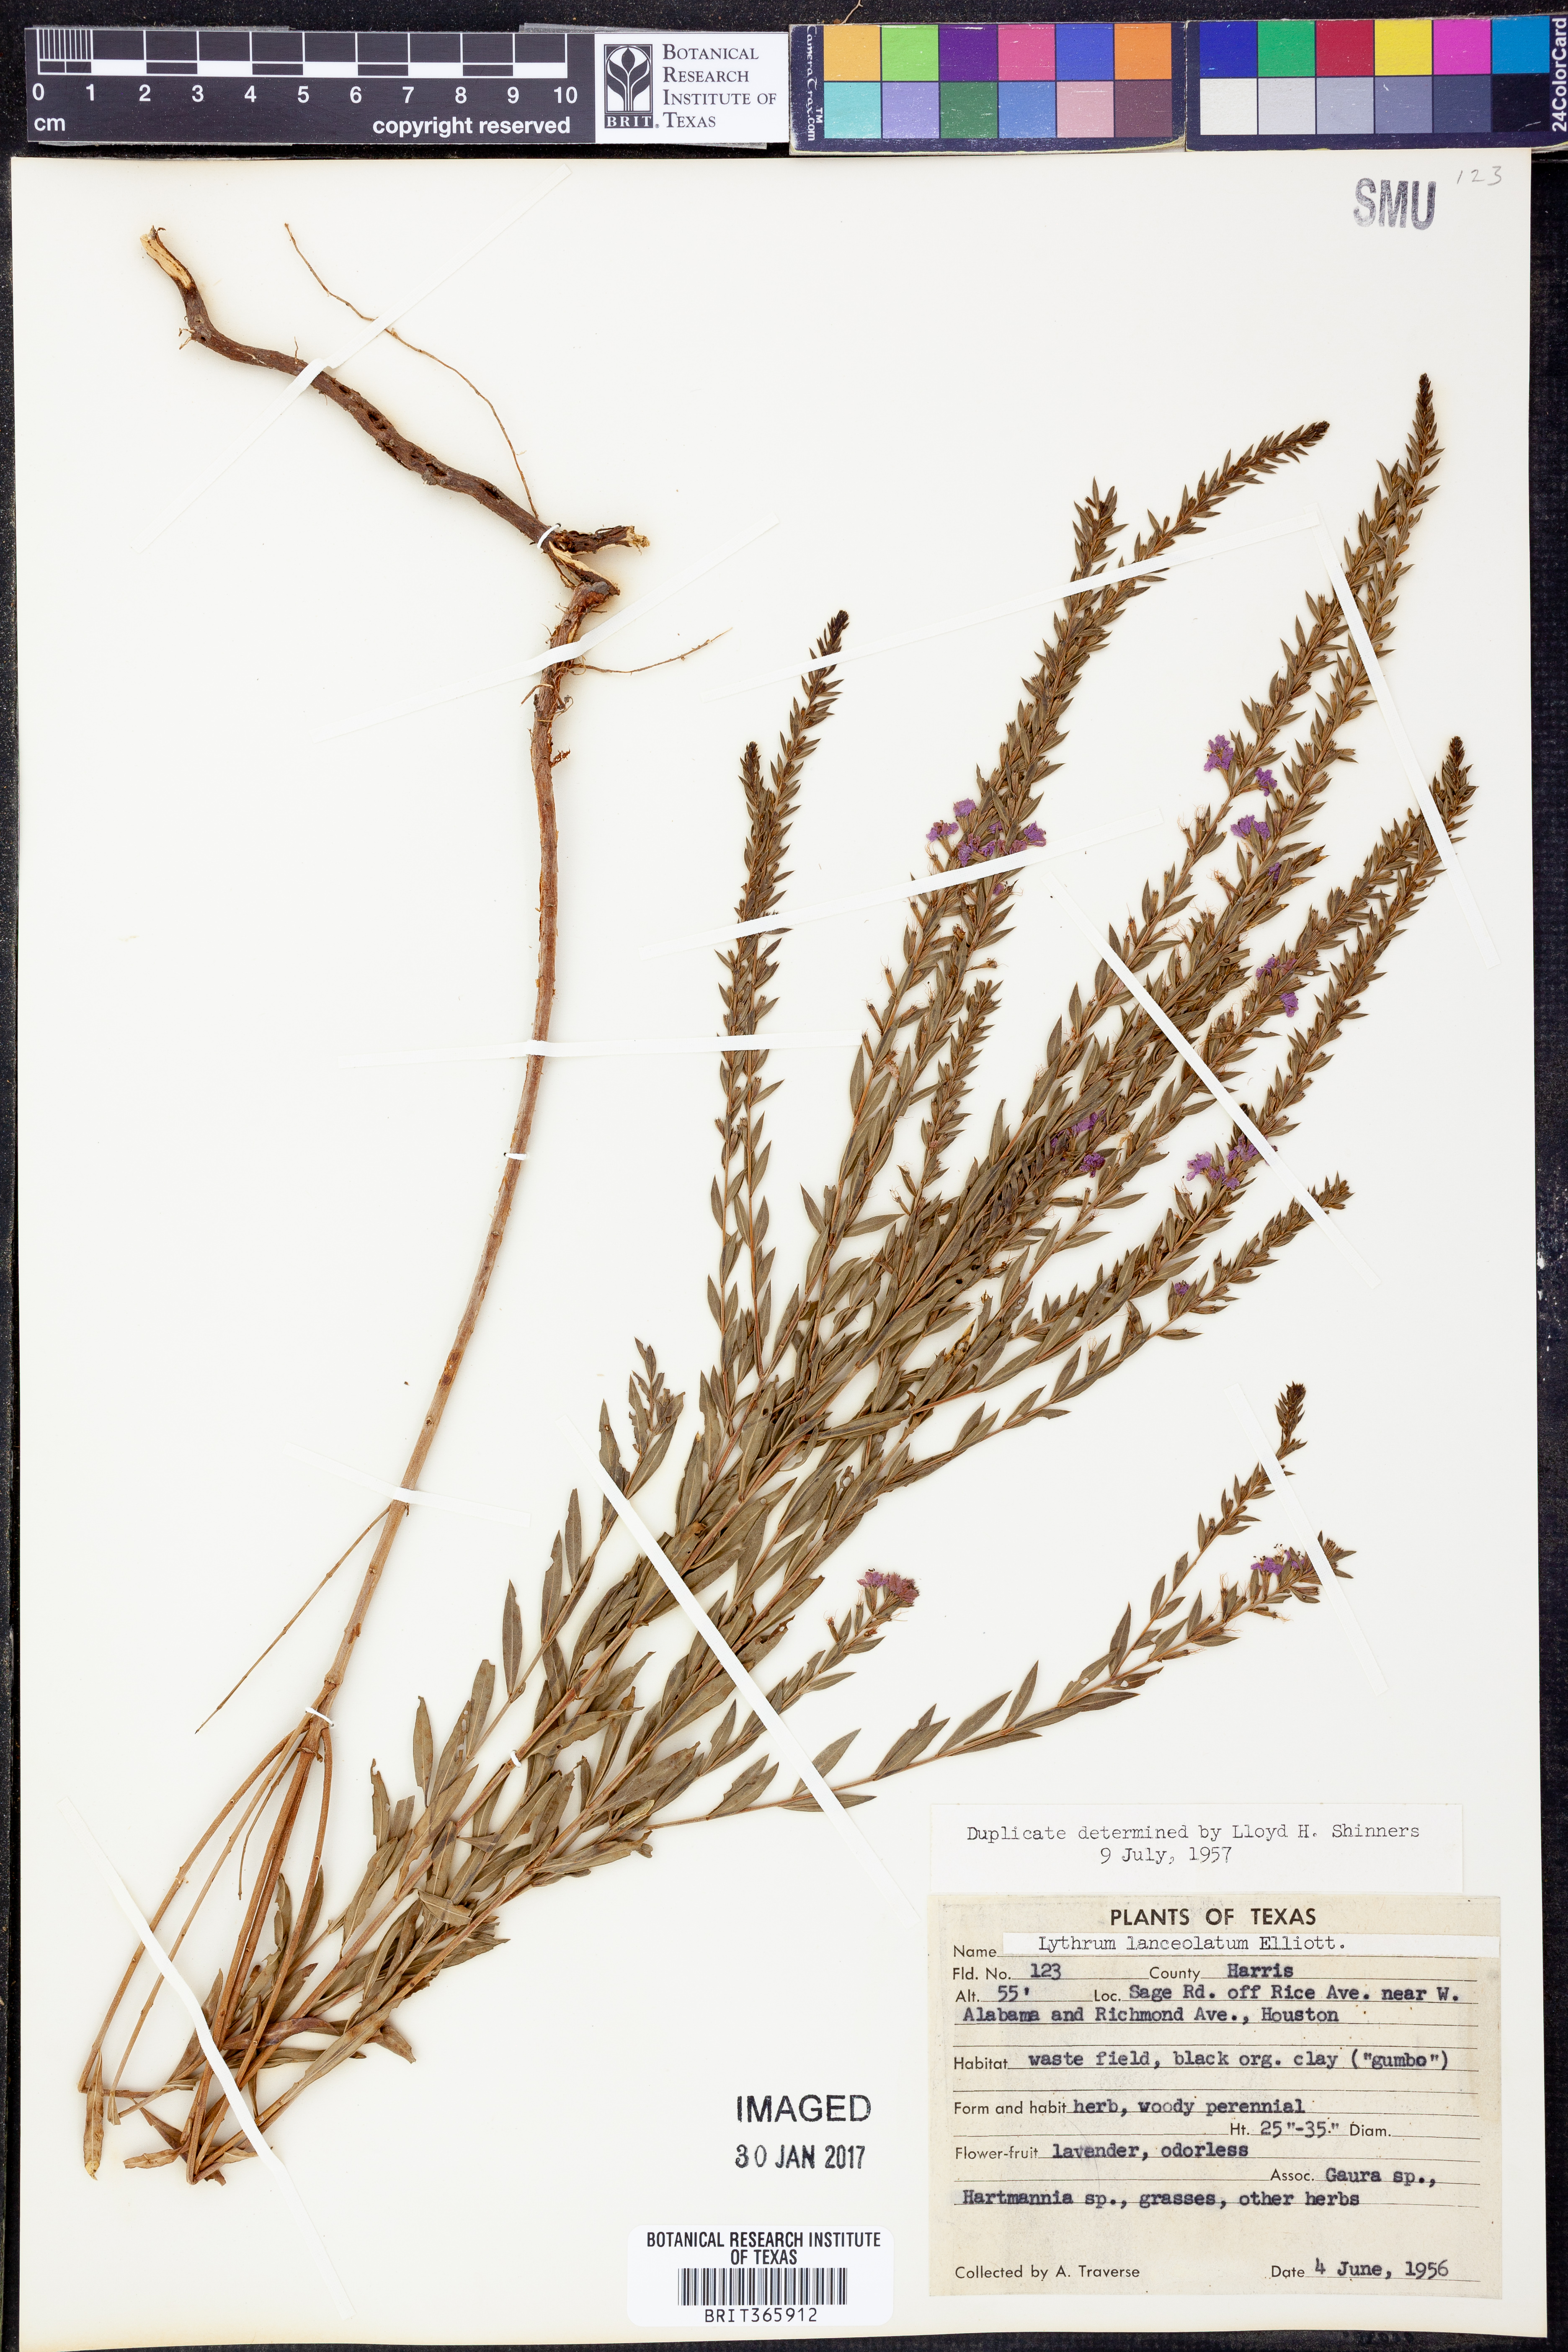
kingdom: Plantae
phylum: Tracheophyta
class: Magnoliopsida
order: Myrtales
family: Lythraceae
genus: Lythrum
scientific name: Lythrum alatum
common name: Winged loosestrife
